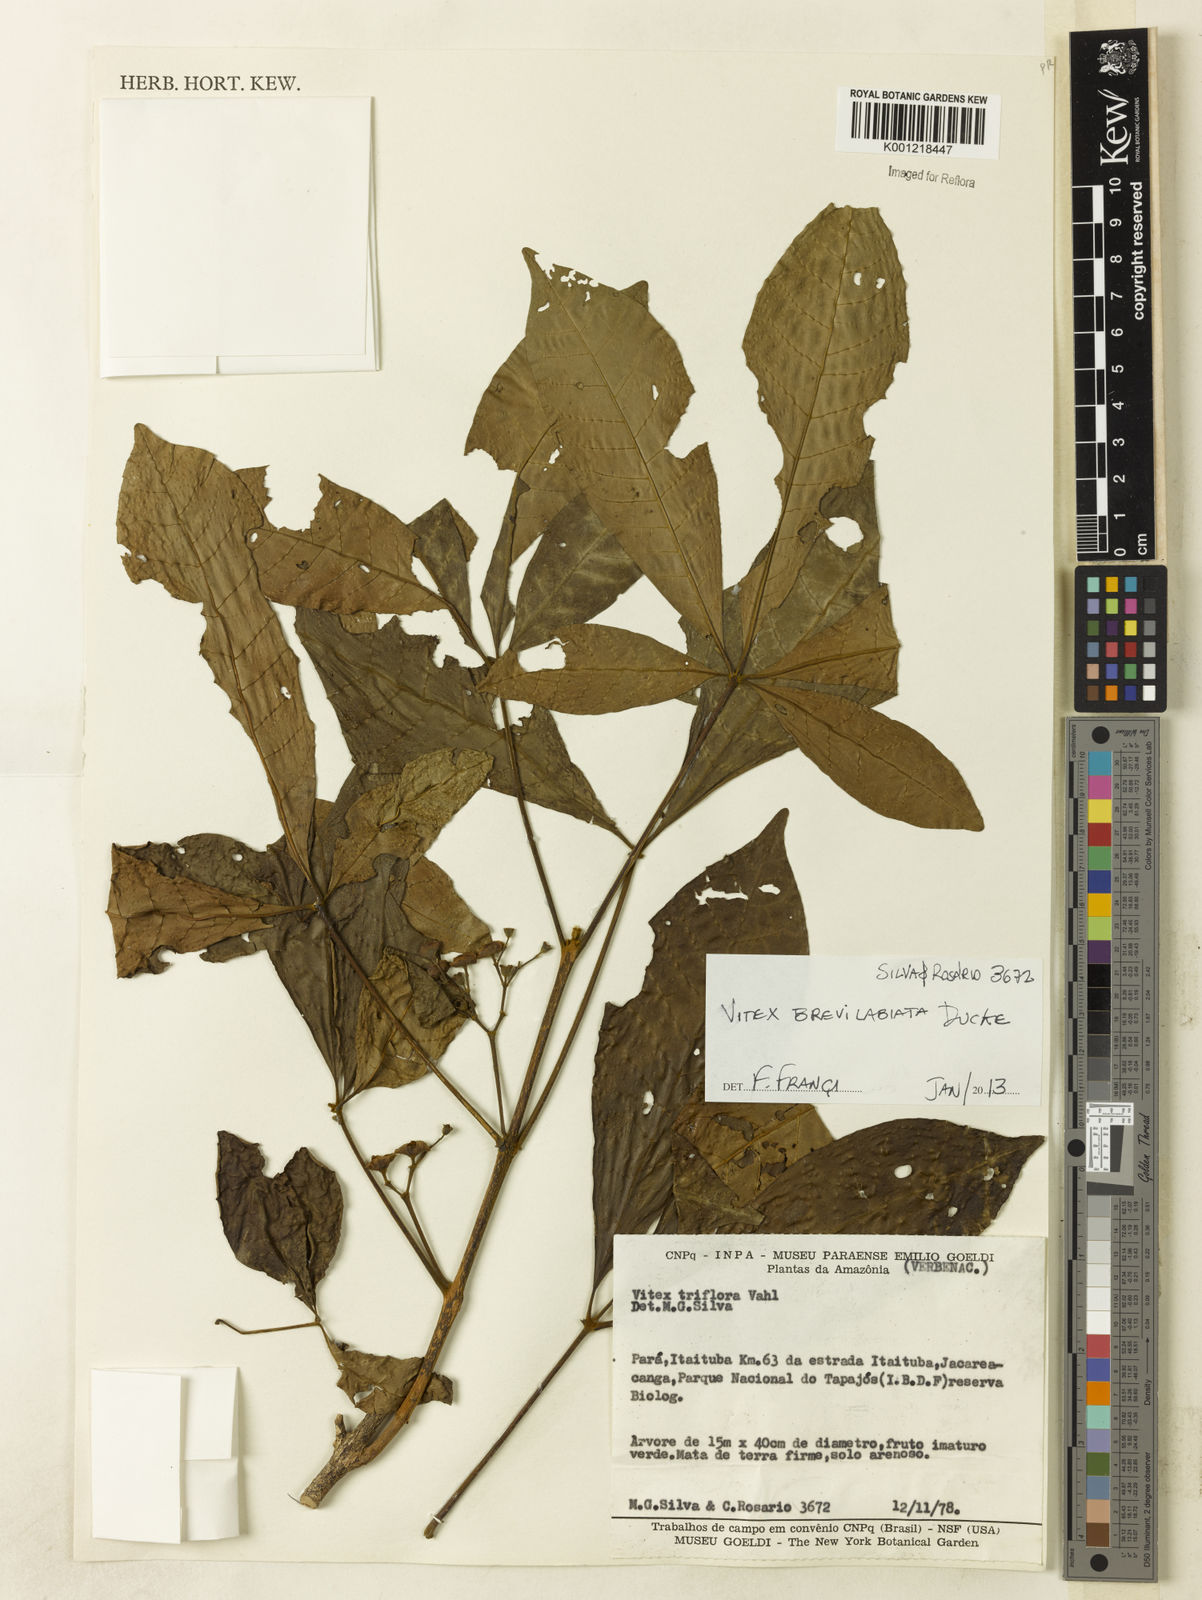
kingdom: Plantae
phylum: Tracheophyta
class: Magnoliopsida
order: Lamiales
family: Lamiaceae
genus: Vitex
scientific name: Vitex brevilabiata
